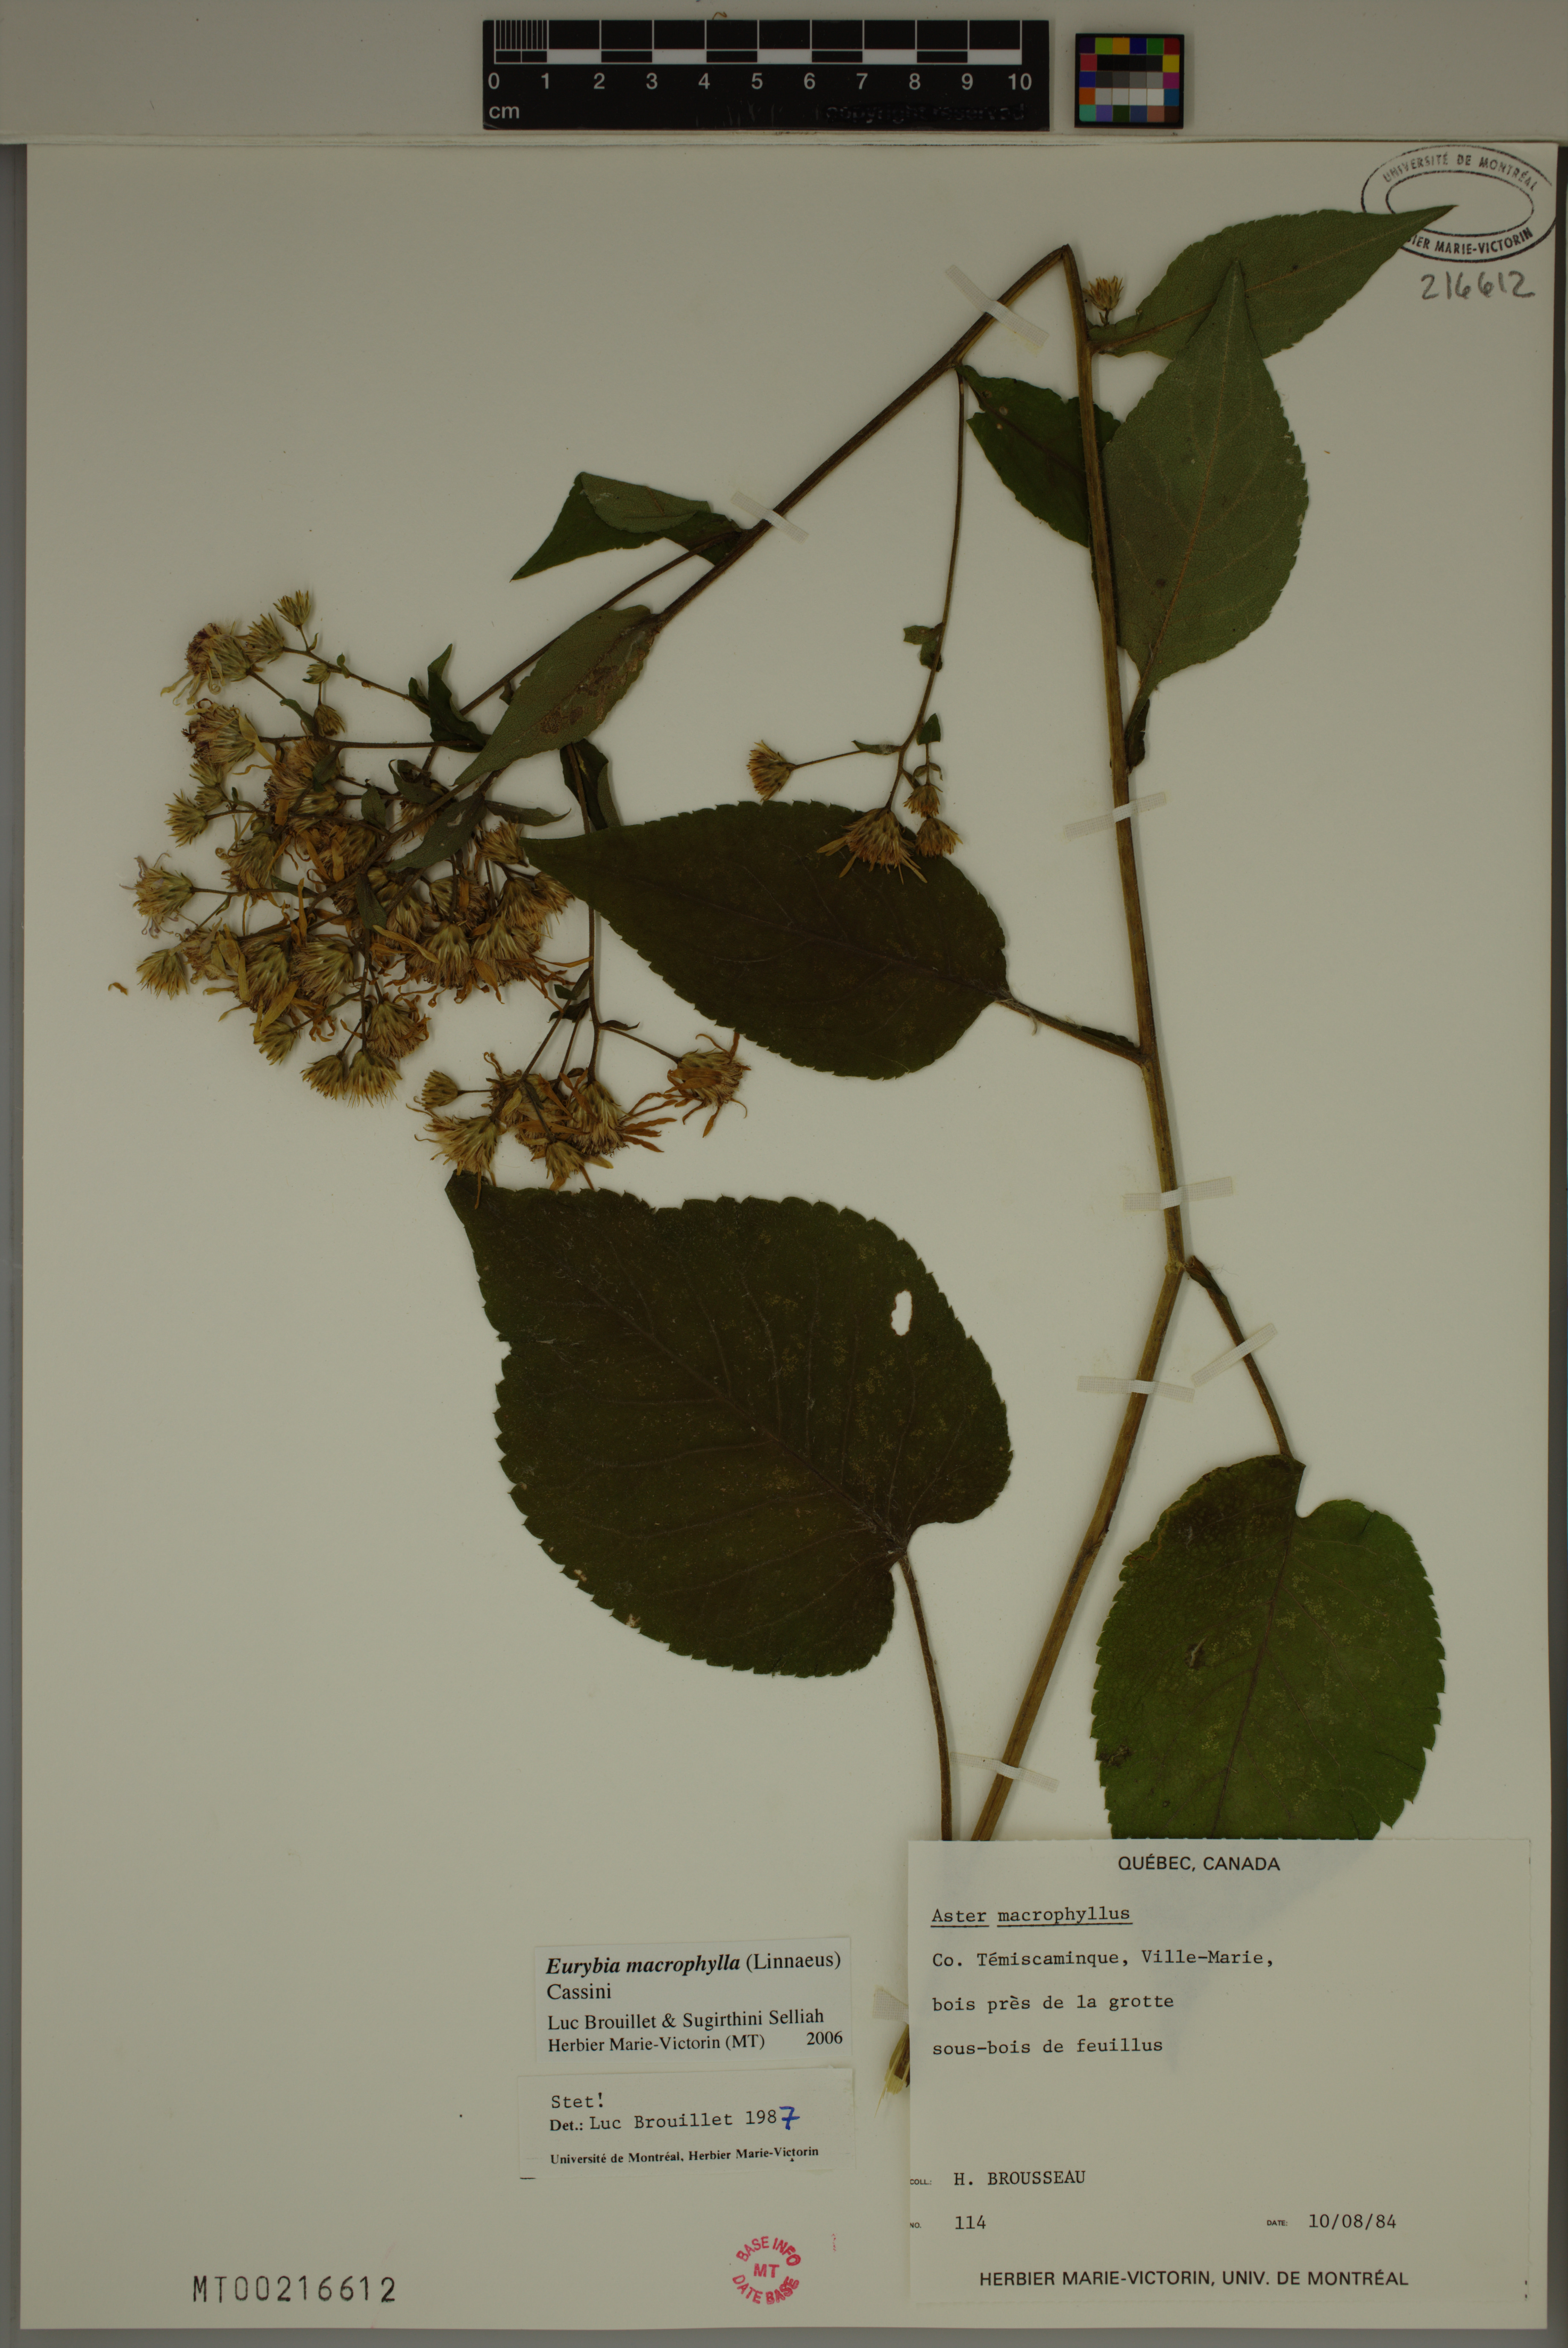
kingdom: Plantae
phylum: Tracheophyta
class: Magnoliopsida
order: Asterales
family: Asteraceae
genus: Eurybia
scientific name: Eurybia macrophylla
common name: Big-leaved aster
